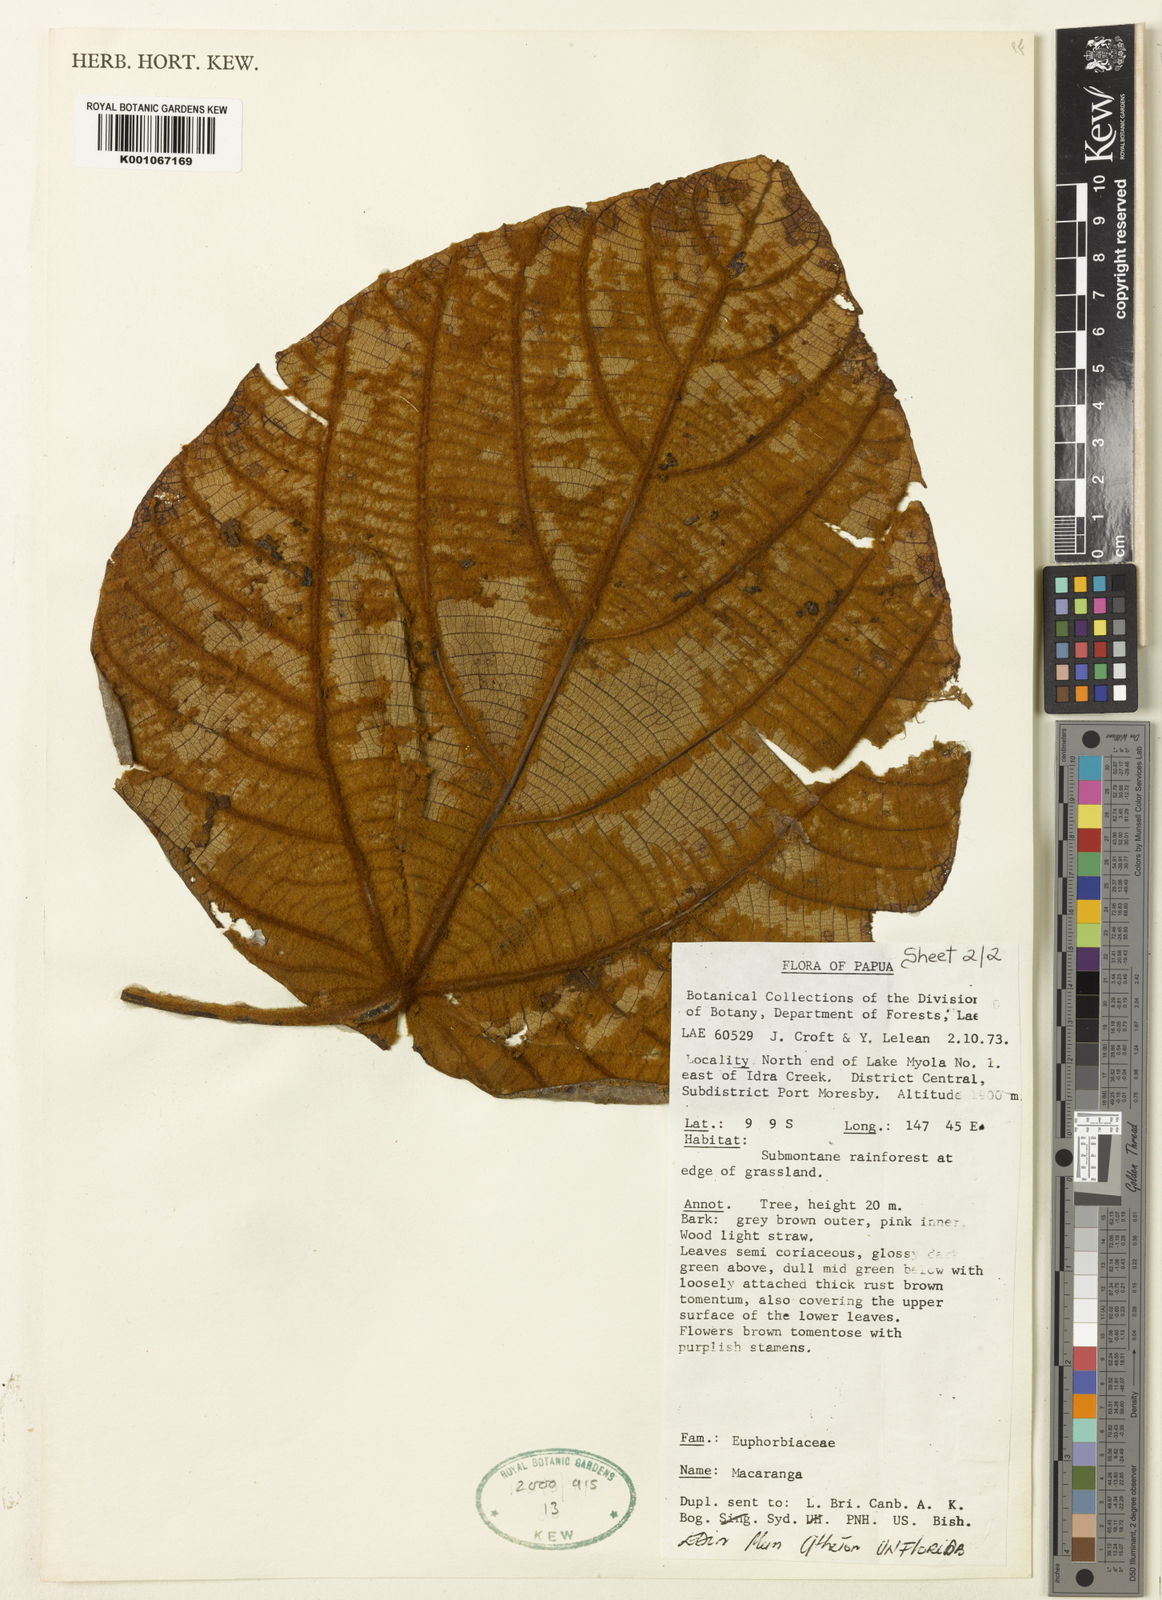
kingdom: Plantae
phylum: Tracheophyta
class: Magnoliopsida
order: Malpighiales
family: Euphorbiaceae
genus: Macaranga
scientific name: Macaranga carrii
